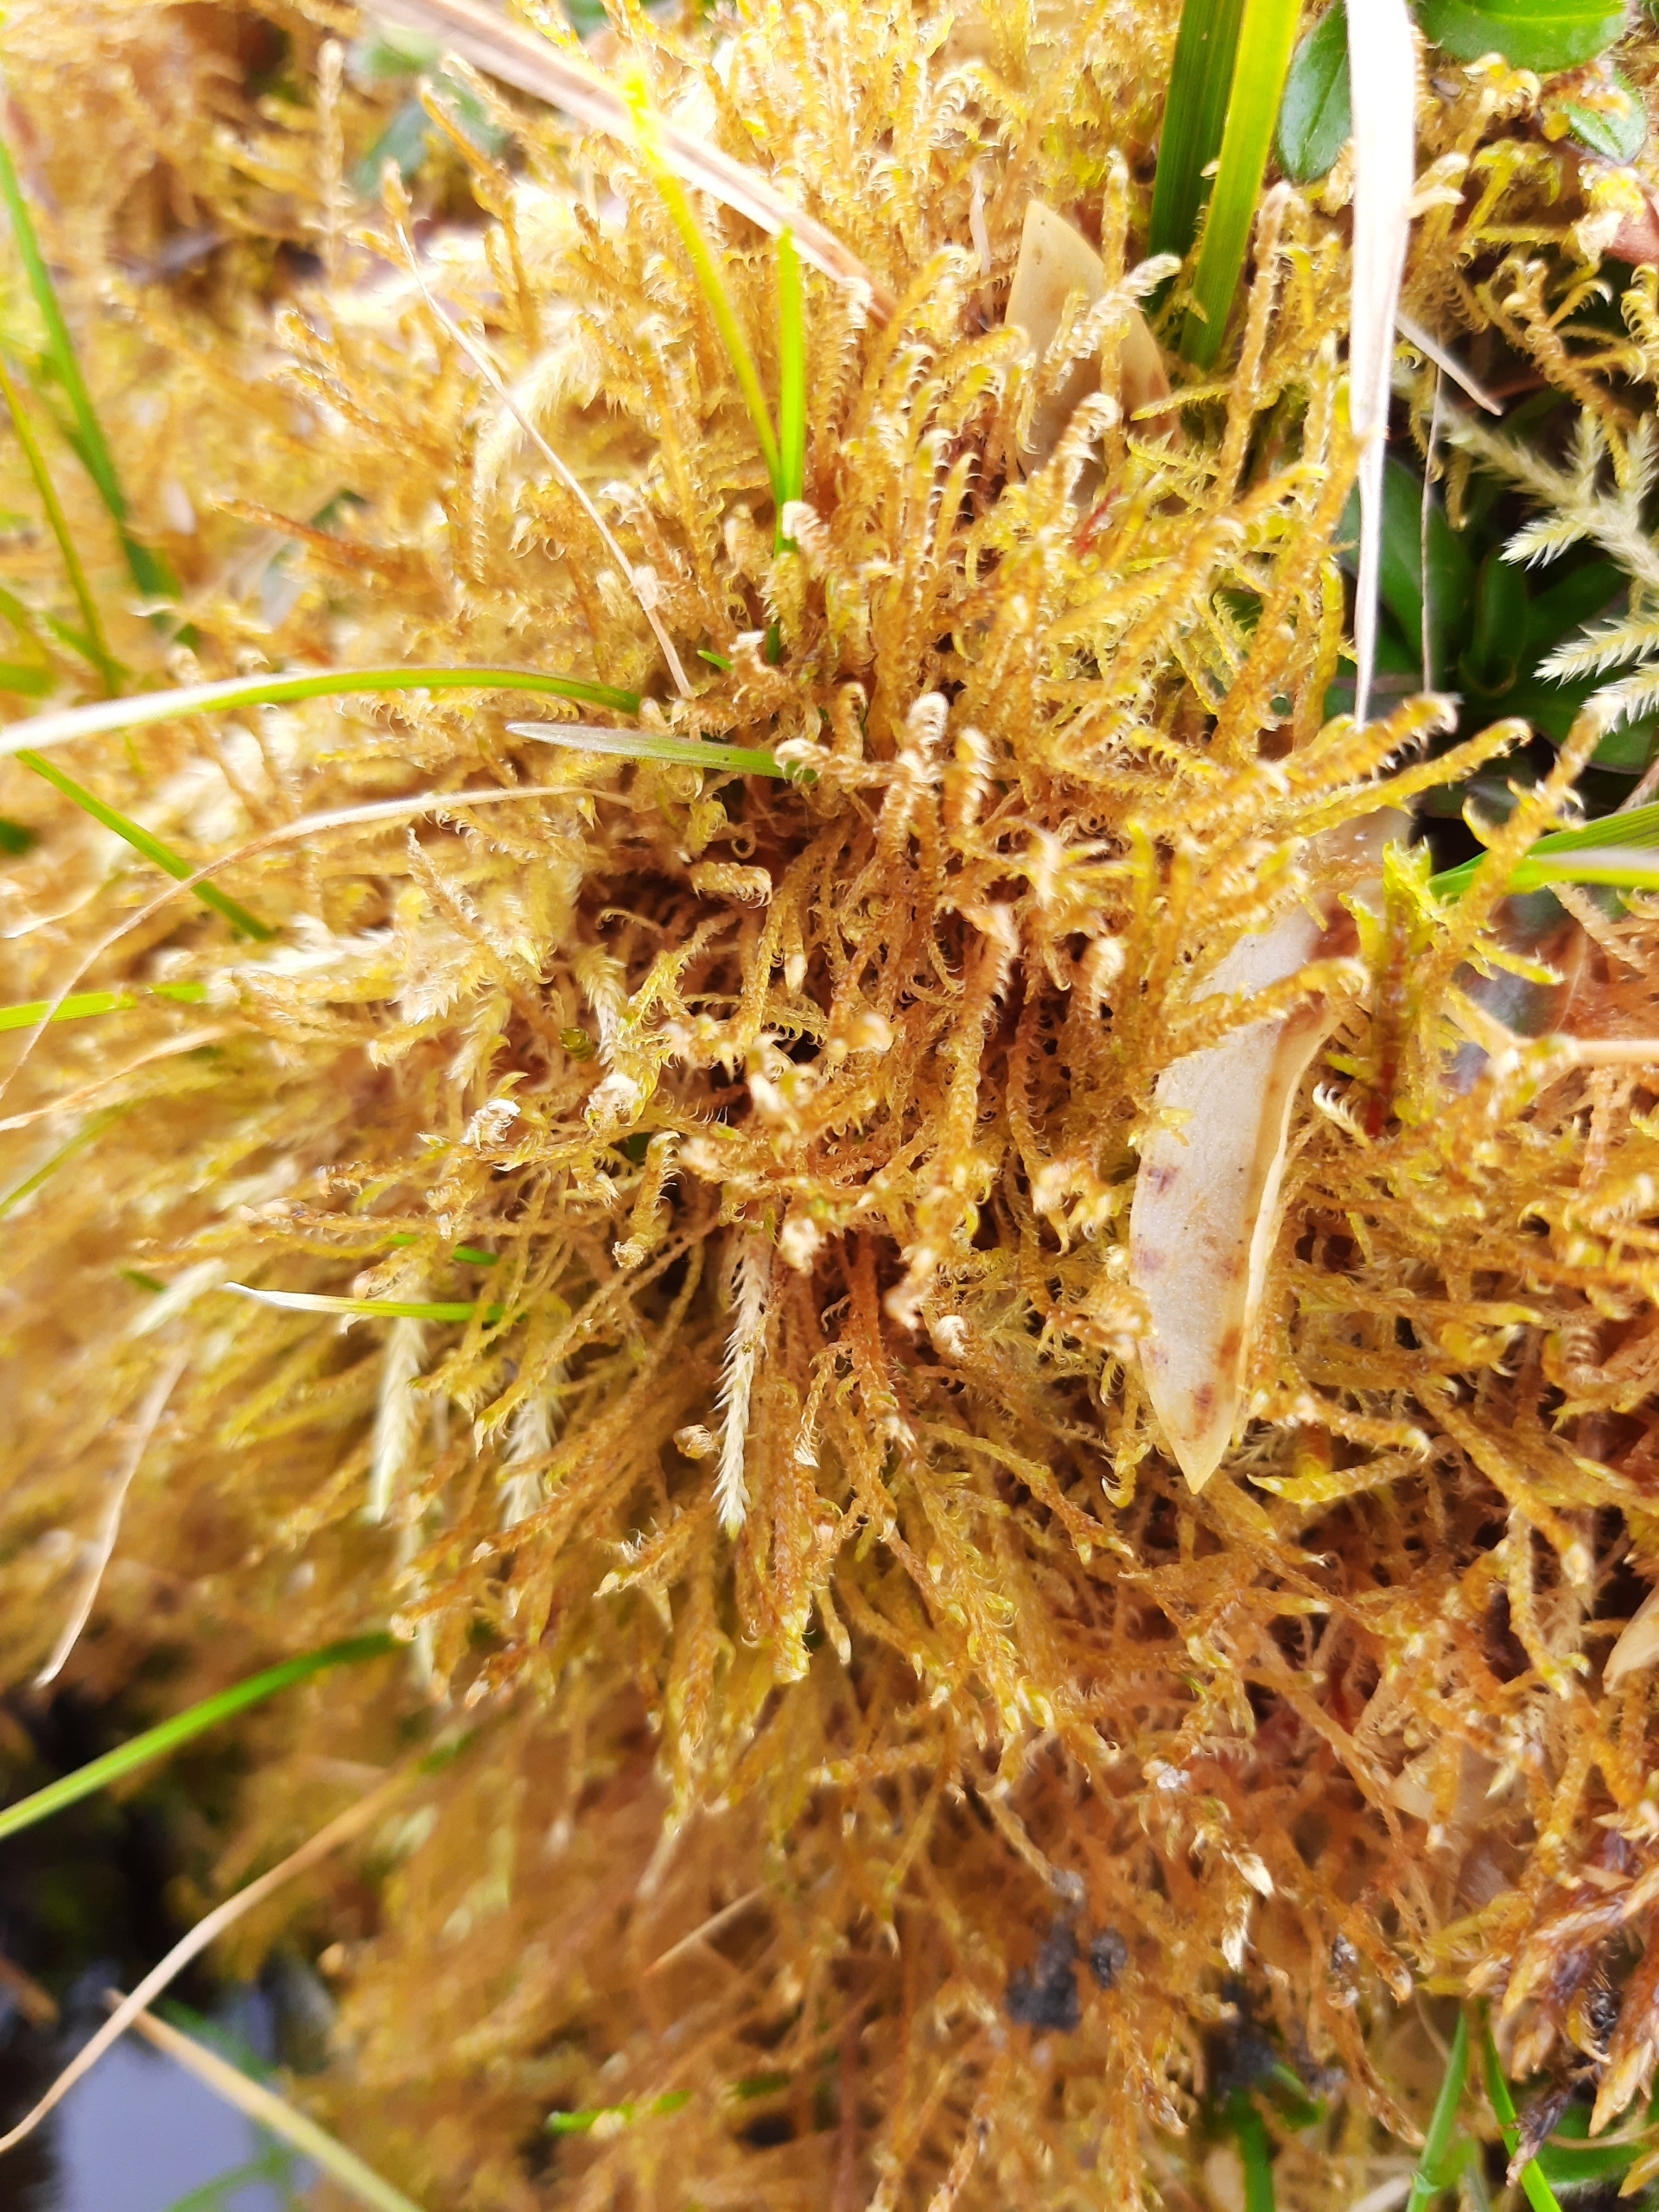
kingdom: Plantae
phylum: Bryophyta
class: Bryopsida
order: Hypnales
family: Amblystegiaceae
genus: Drepanocladus
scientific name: Drepanocladus aduncus
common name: Kær-seglmos
